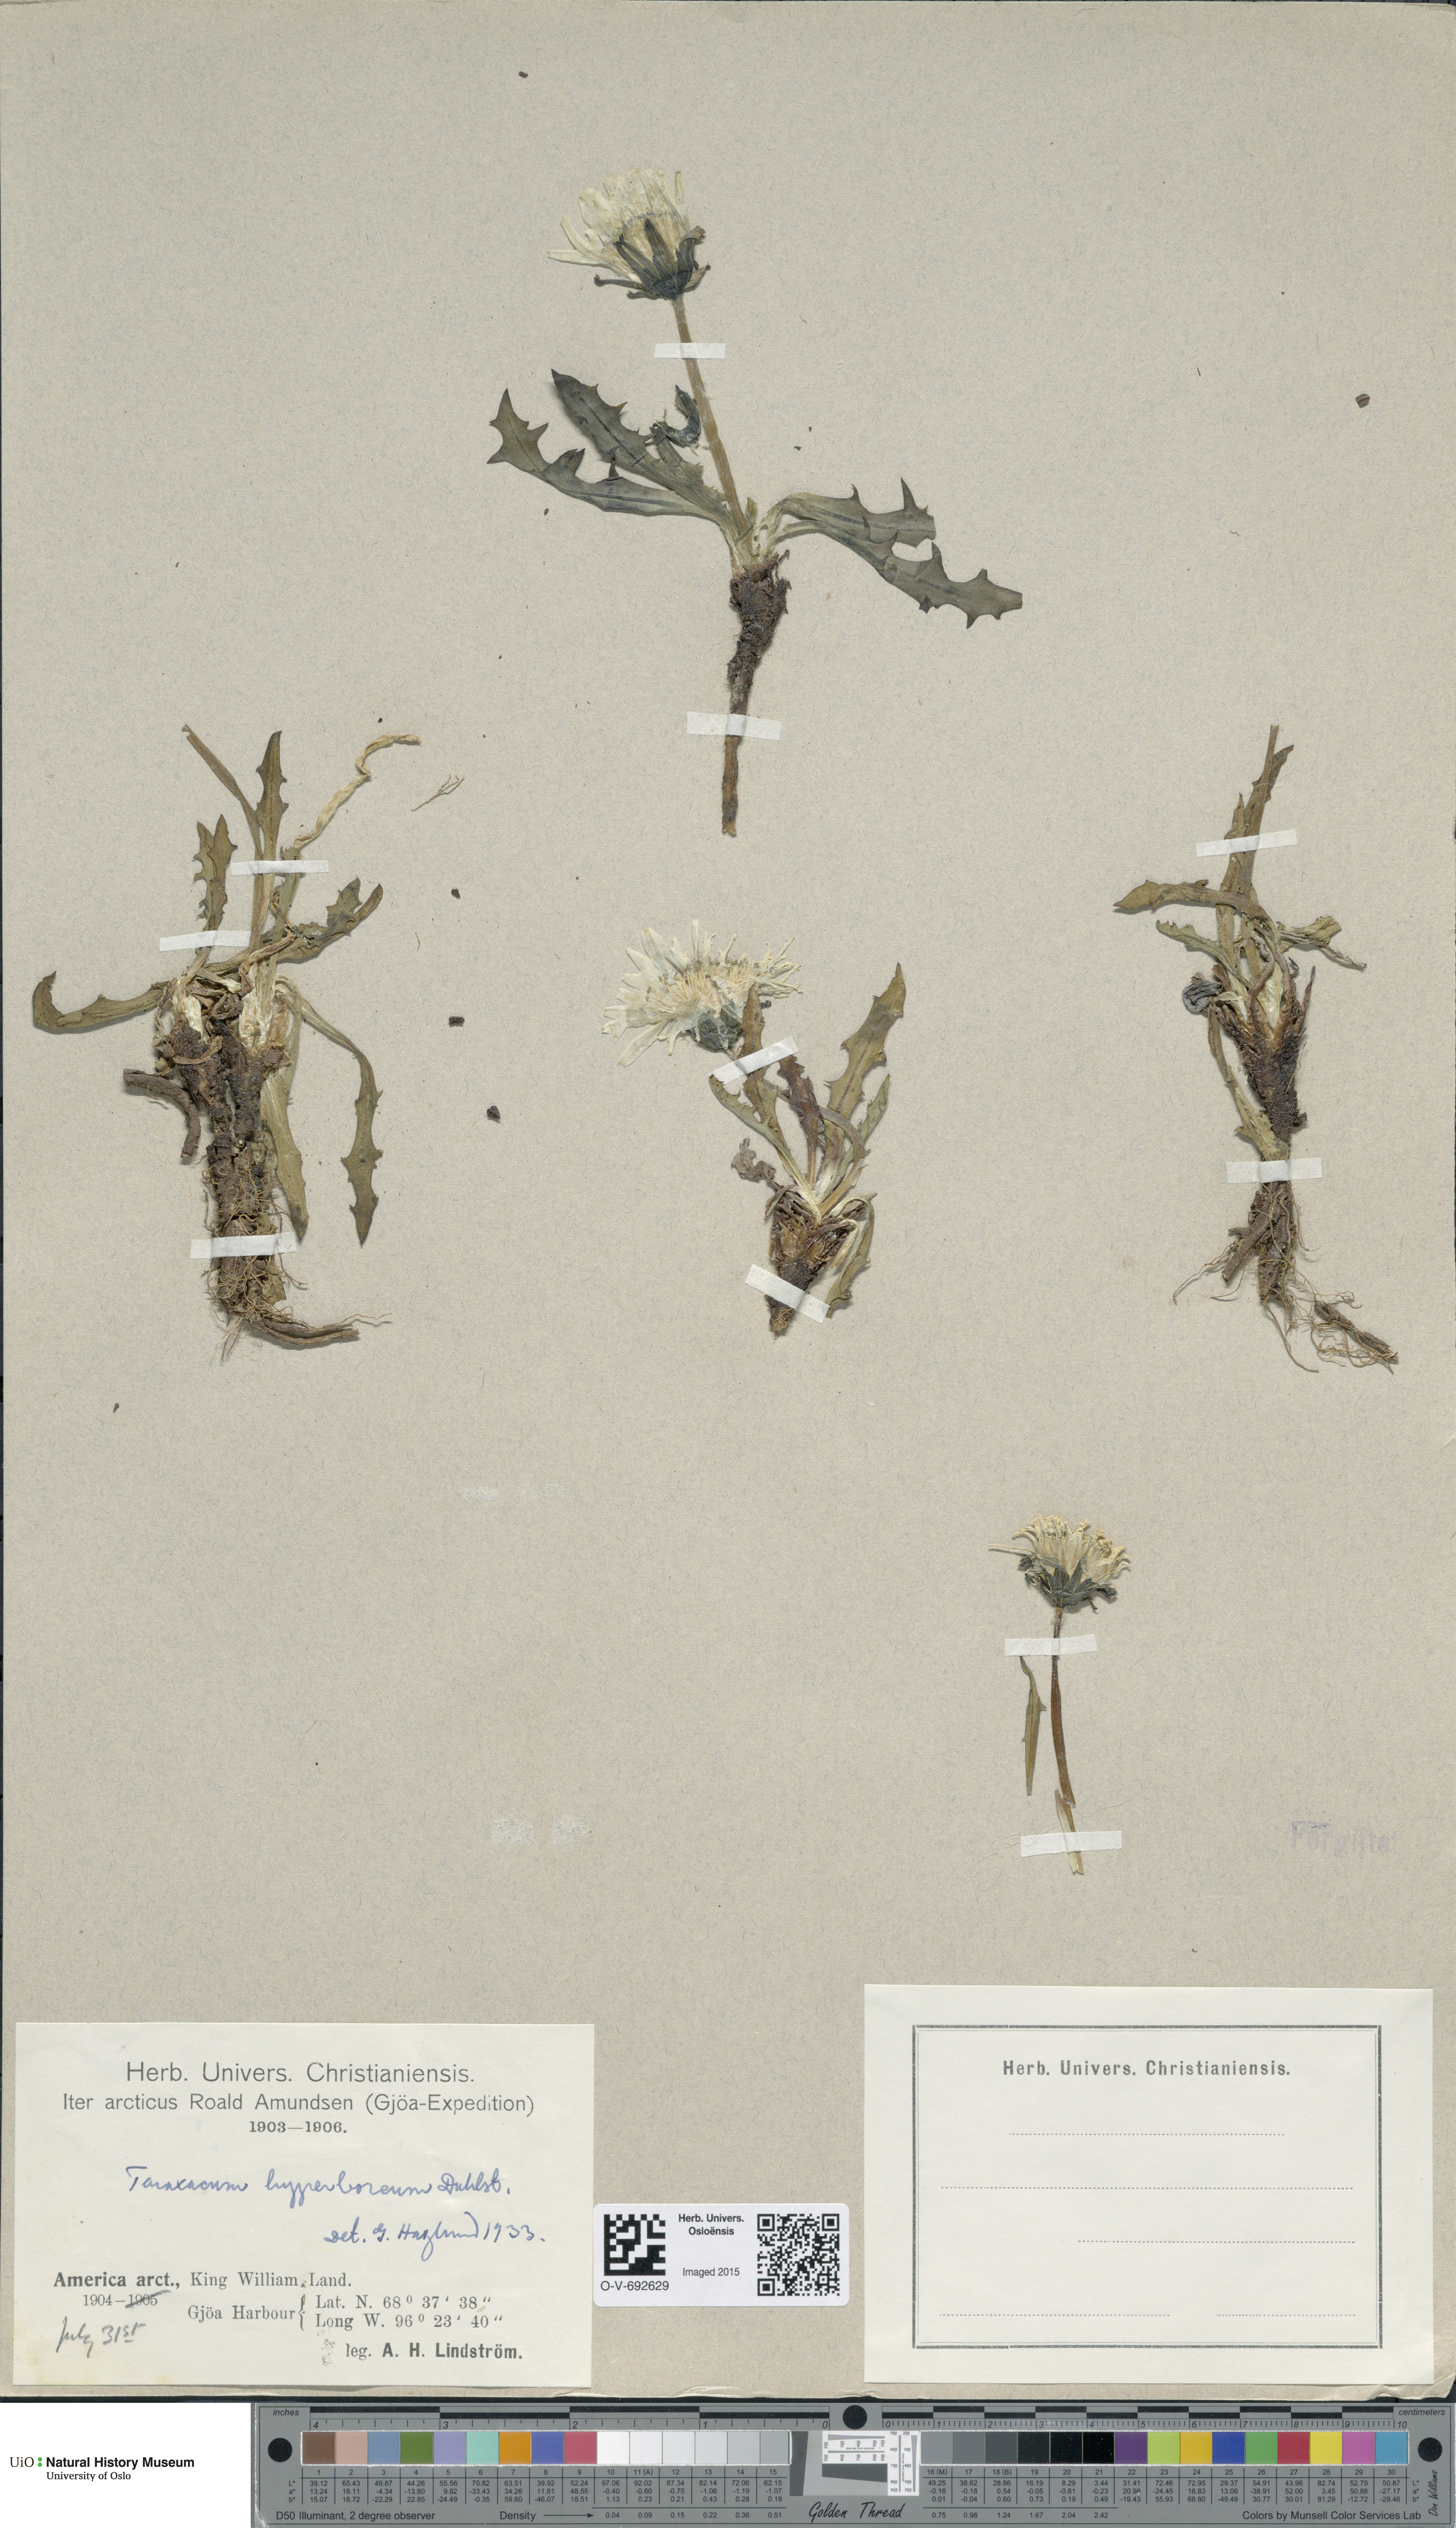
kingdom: Plantae
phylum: Tracheophyta
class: Magnoliopsida
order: Asterales
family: Asteraceae
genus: Taraxacum
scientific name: Taraxacum ceratophorum
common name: Horn-bearing dandelion
